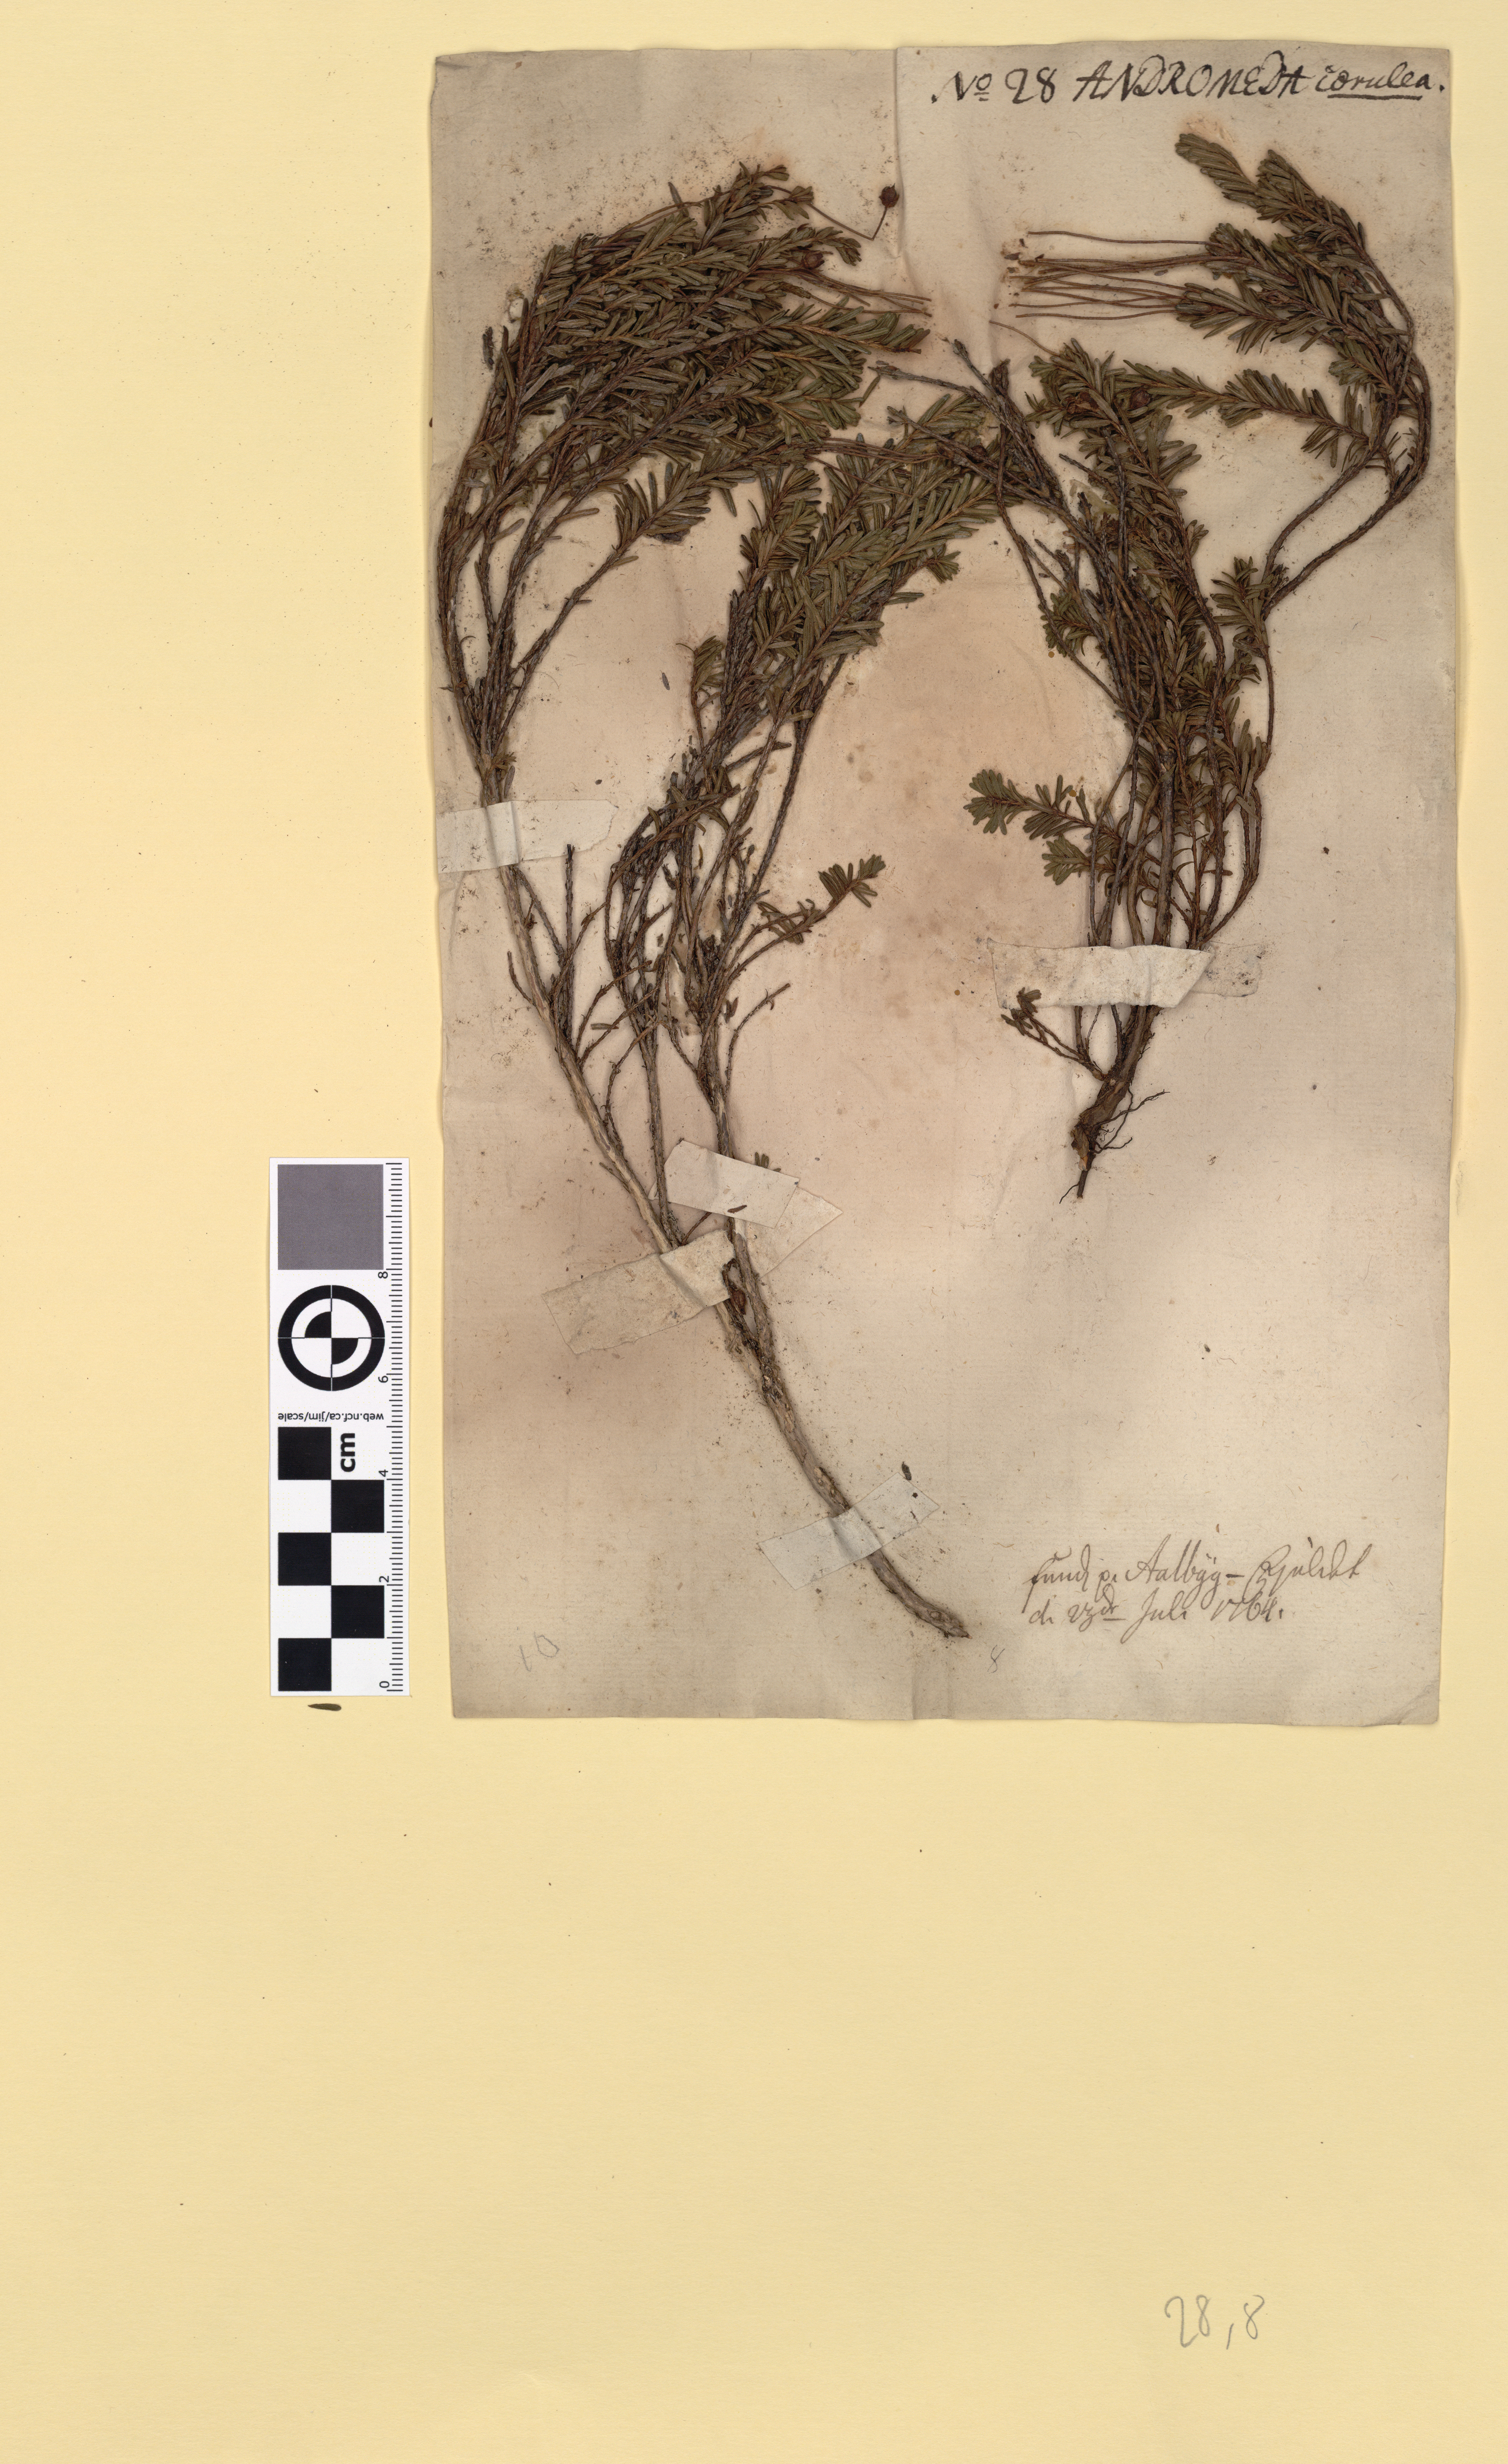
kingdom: Plantae
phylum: Tracheophyta
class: Magnoliopsida
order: Ericales
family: Ericaceae
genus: Phyllodoce
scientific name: Phyllodoce caerulea
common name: Blue heath
